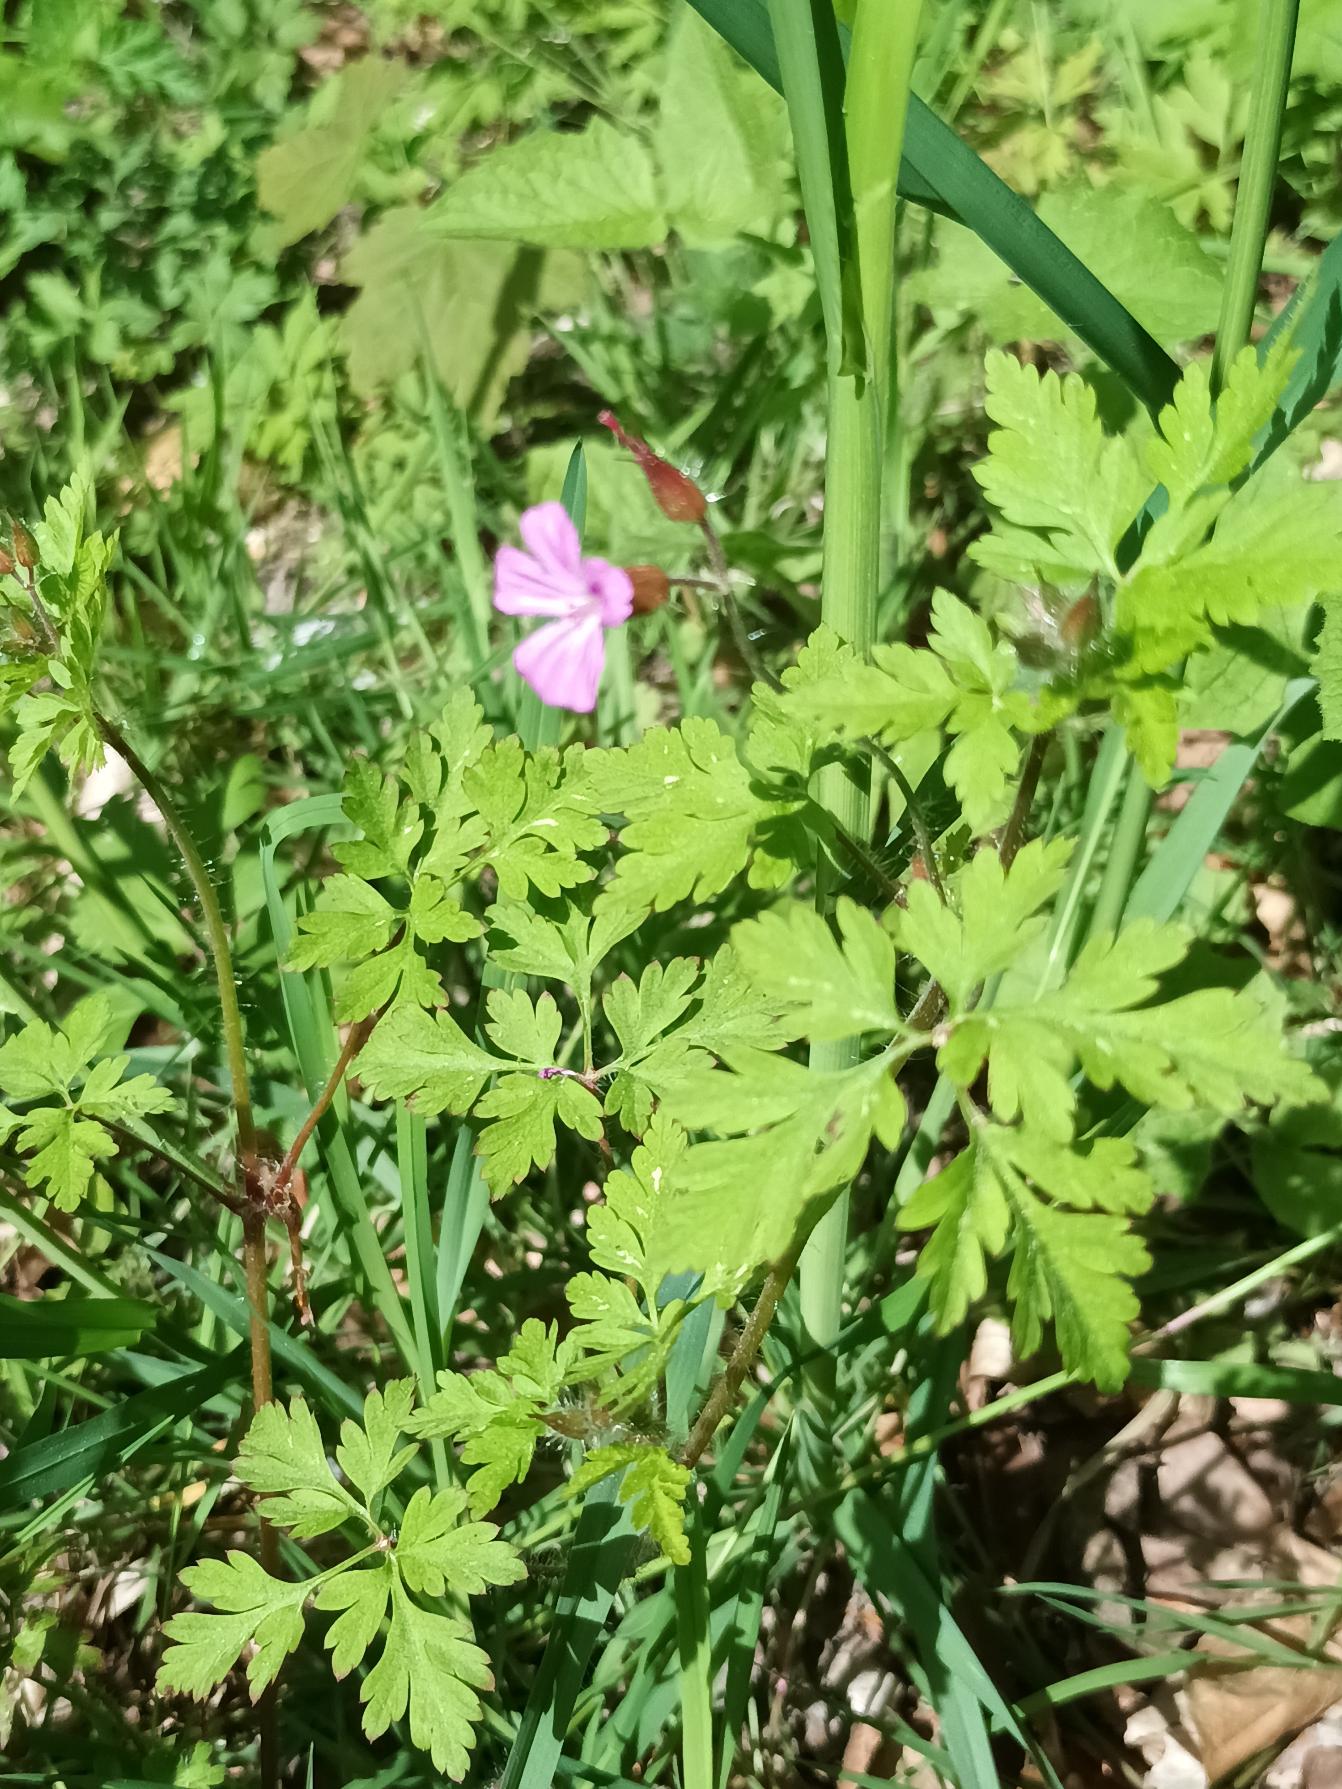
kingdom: Plantae
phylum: Tracheophyta
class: Magnoliopsida
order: Geraniales
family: Geraniaceae
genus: Geranium
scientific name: Geranium robertianum
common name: Stinkende storkenæb
